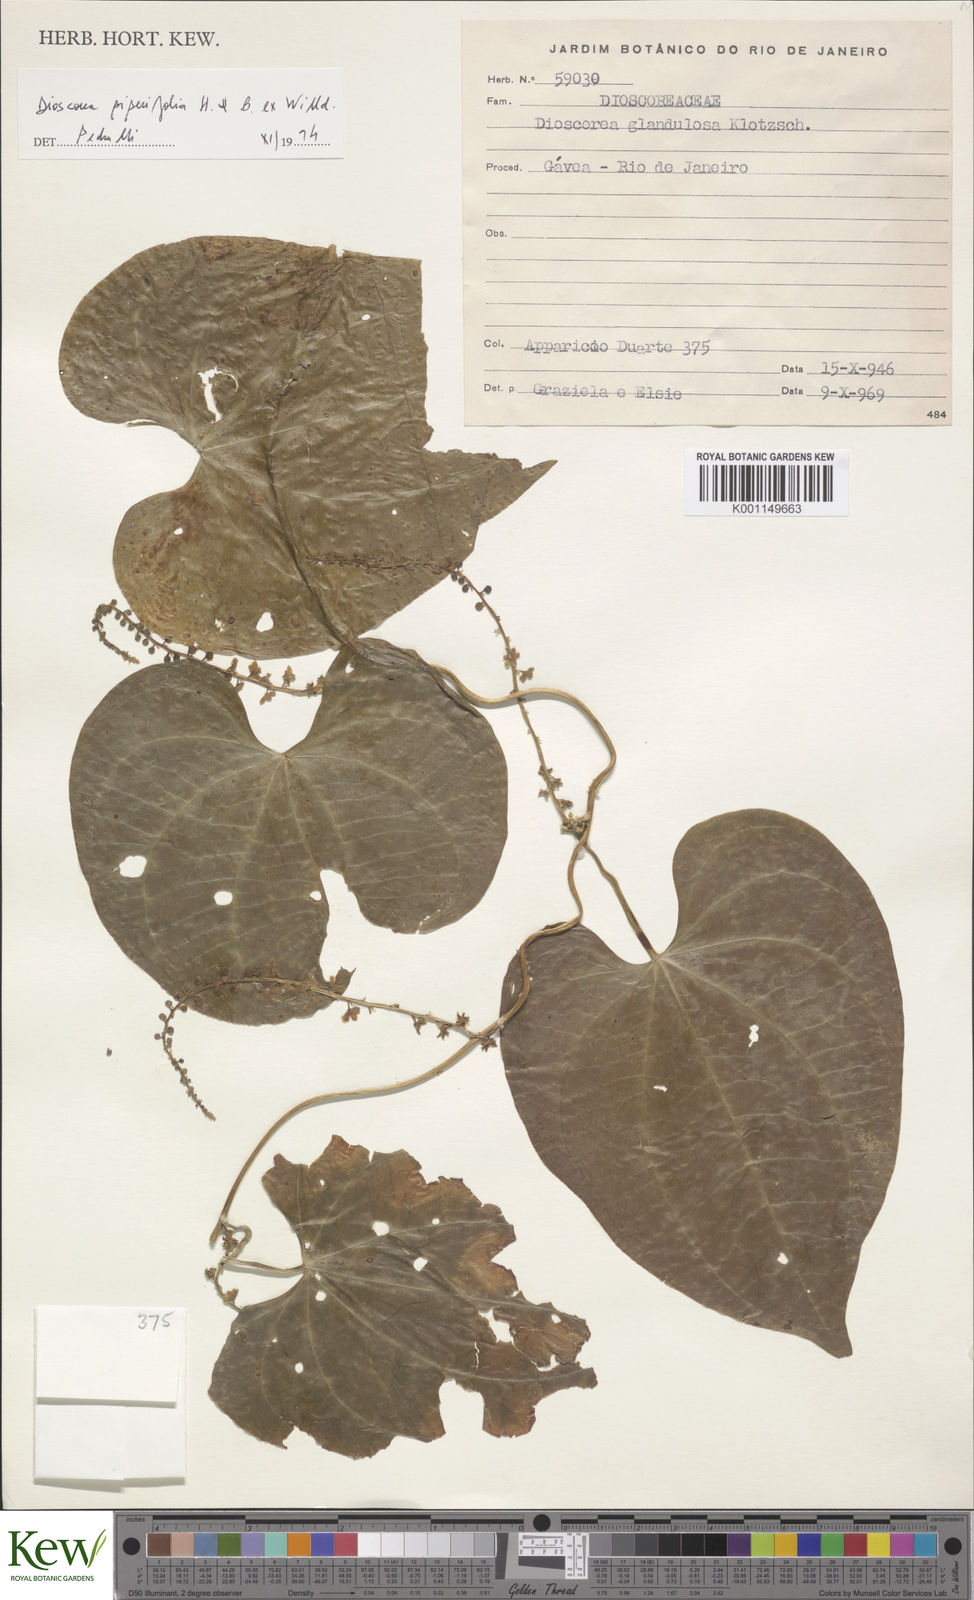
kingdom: Plantae
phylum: Tracheophyta
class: Liliopsida
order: Dioscoreales
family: Dioscoreaceae
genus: Dioscorea
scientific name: Dioscorea glandulosa
